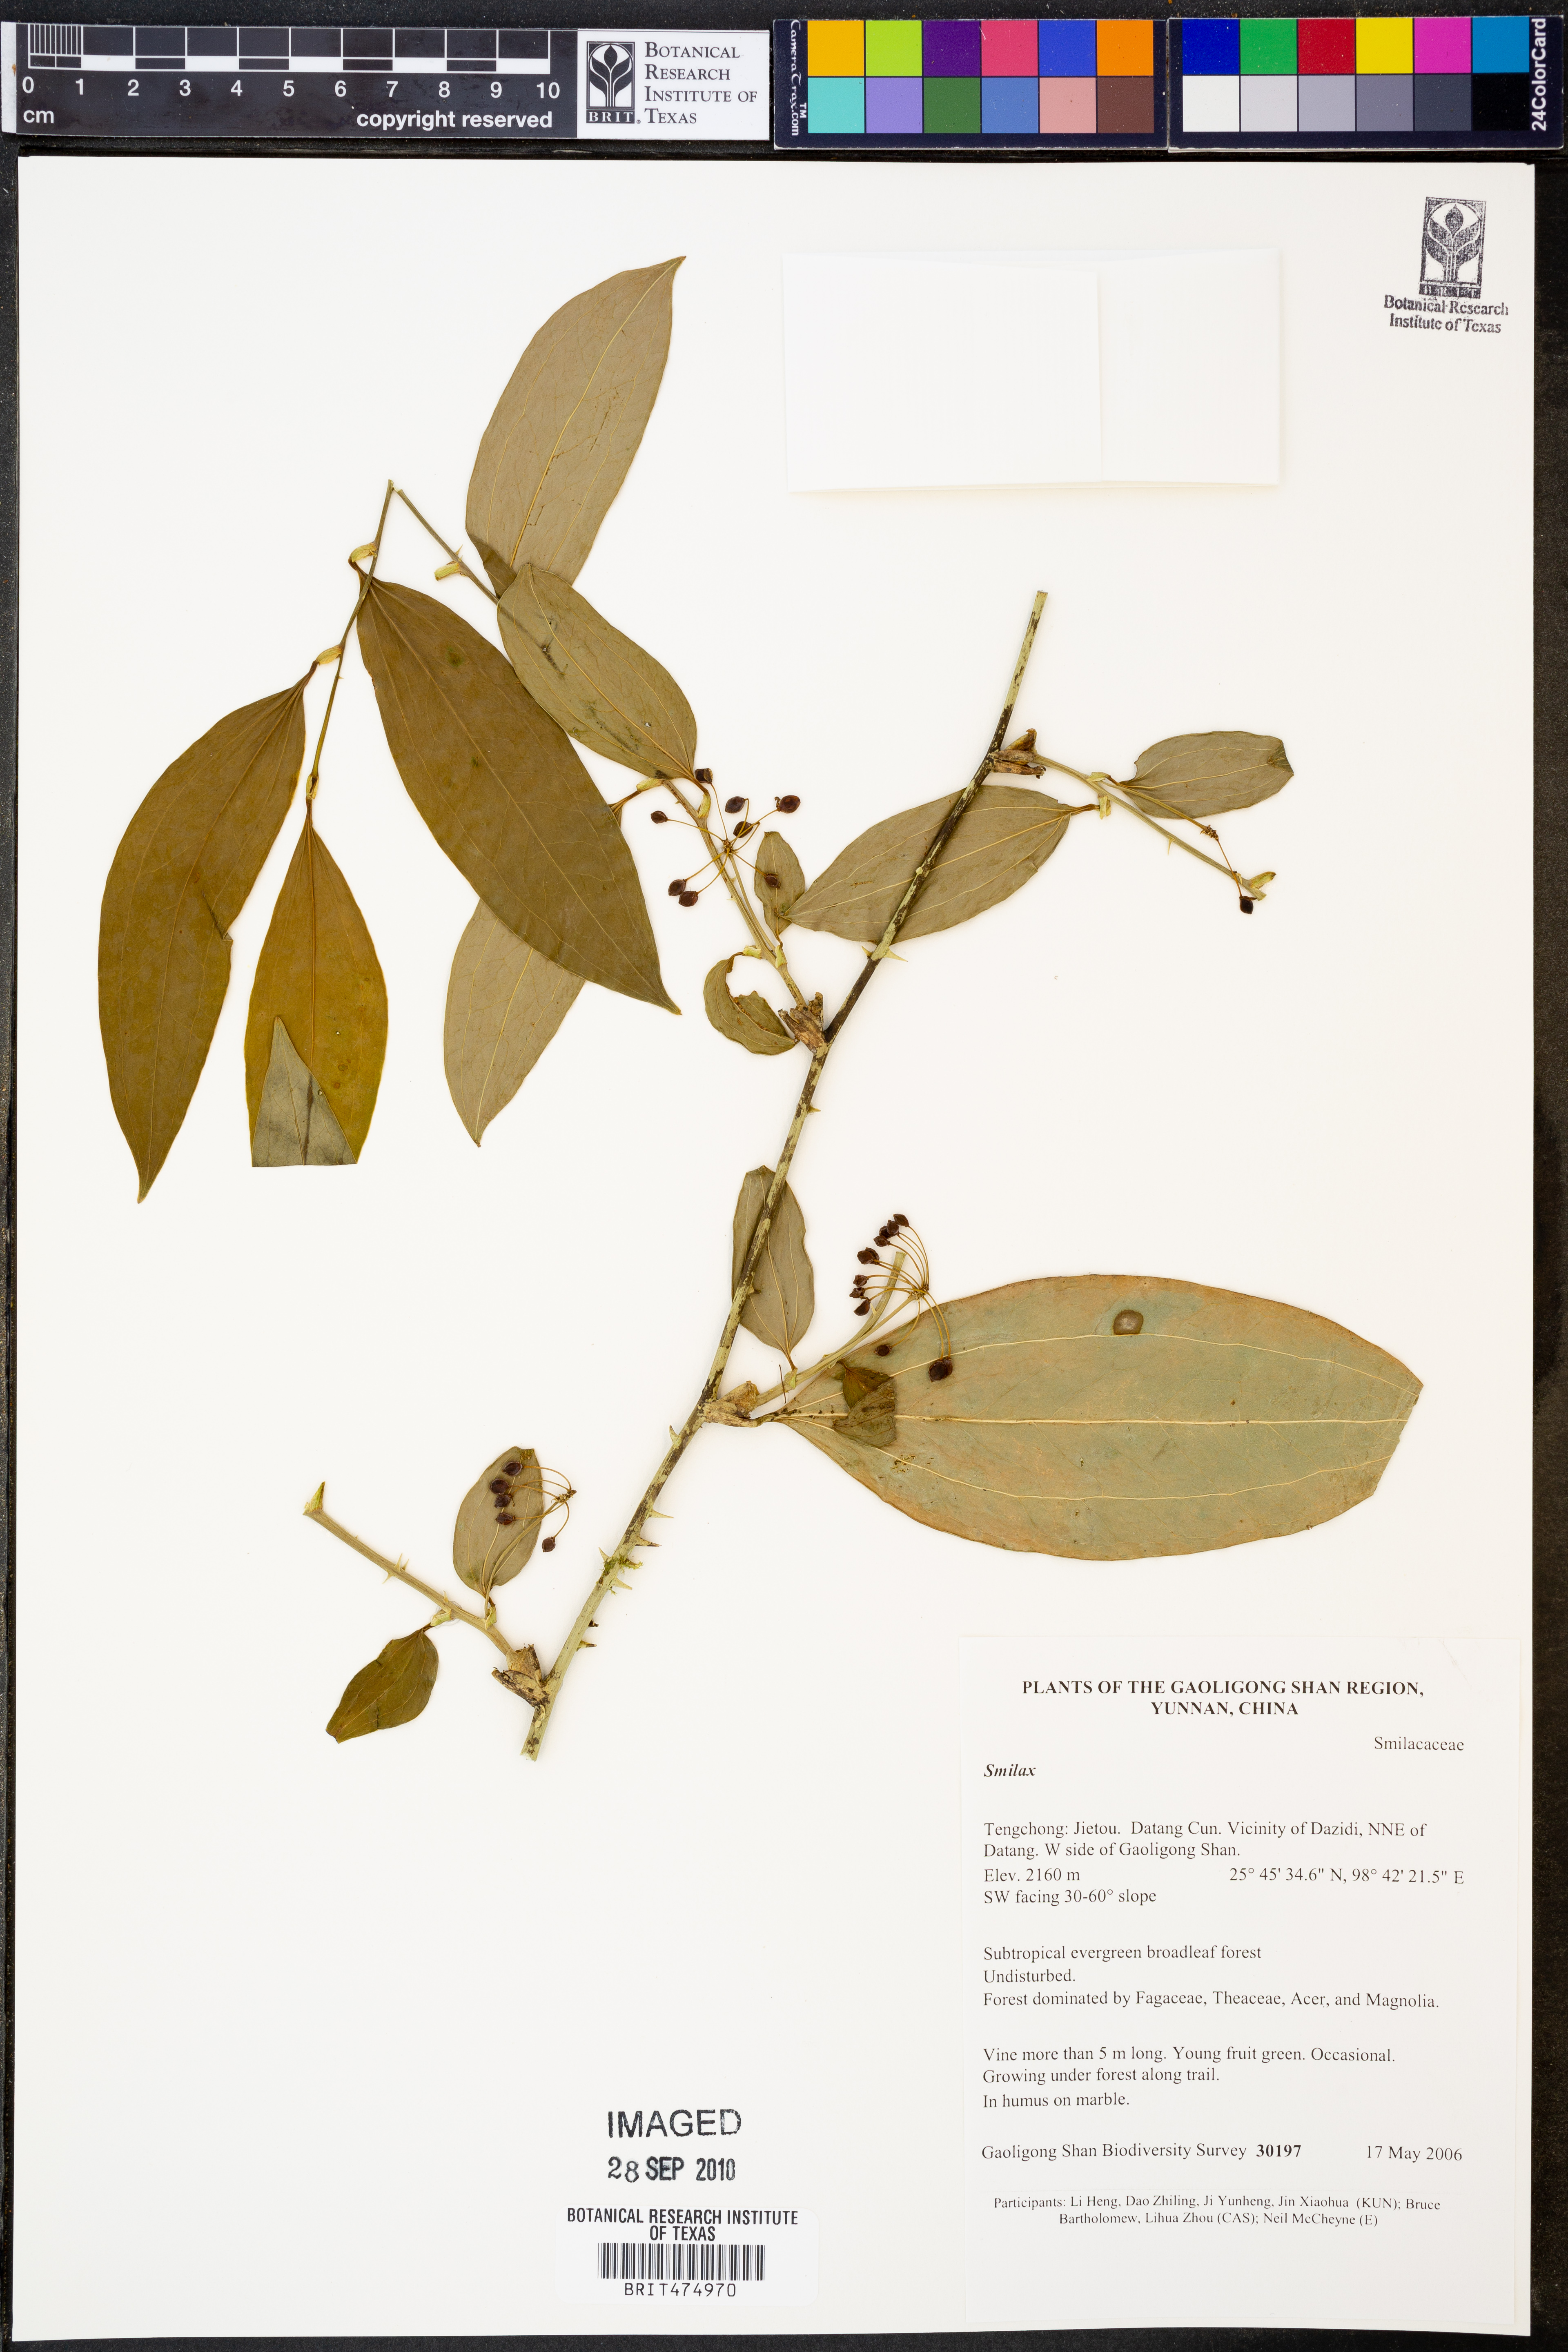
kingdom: Plantae
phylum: Tracheophyta
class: Liliopsida
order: Liliales
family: Smilacaceae
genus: Smilax
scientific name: Smilax
